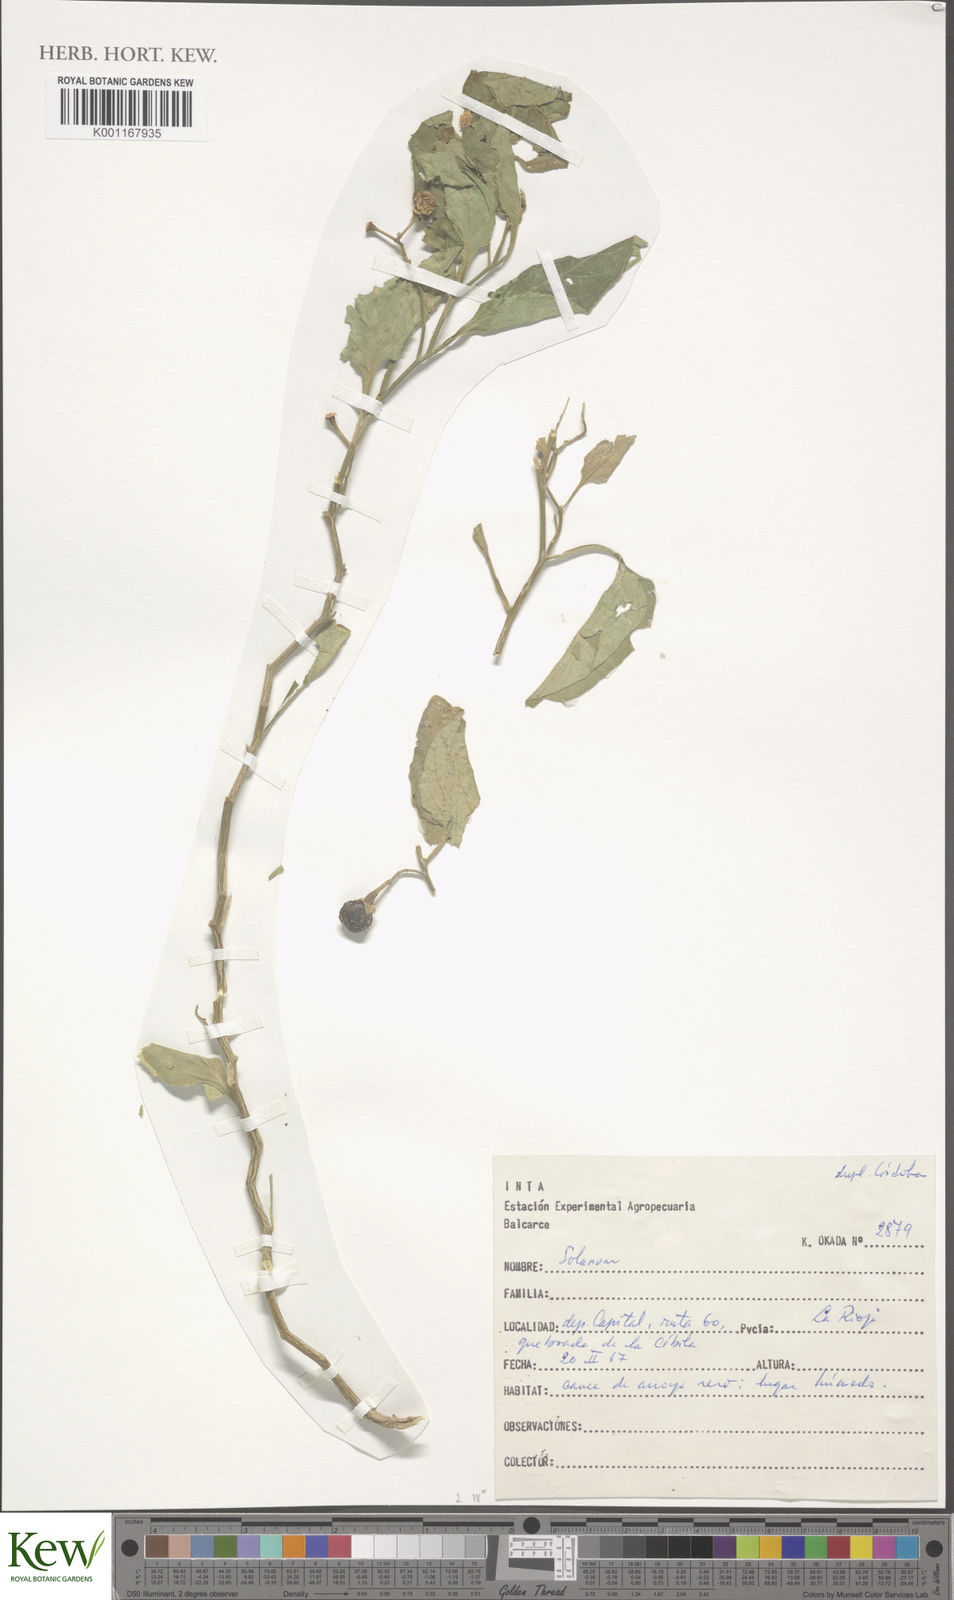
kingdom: Plantae
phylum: Tracheophyta
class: Magnoliopsida
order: Solanales
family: Solanaceae
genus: Solanum
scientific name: Solanum
